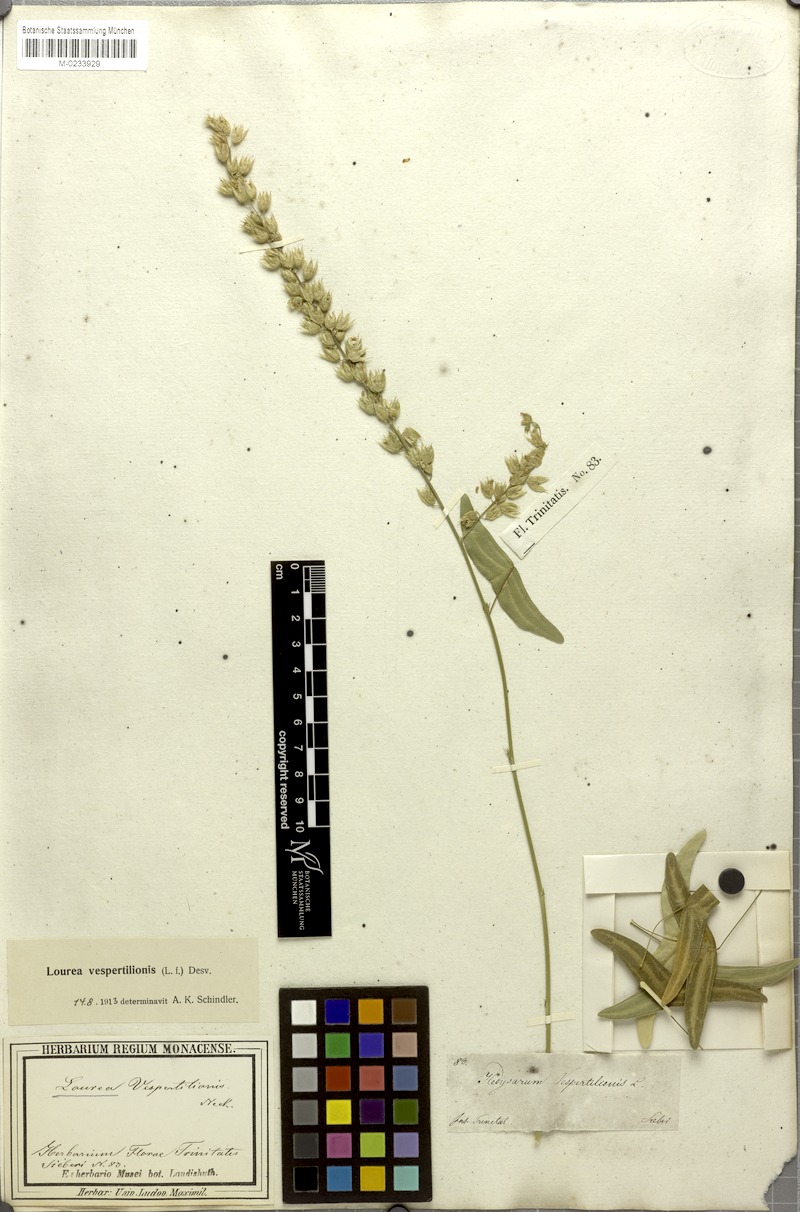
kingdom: Plantae
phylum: Tracheophyta
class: Magnoliopsida
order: Fabales
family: Fabaceae
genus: Christia
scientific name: Christia vespertilionis
